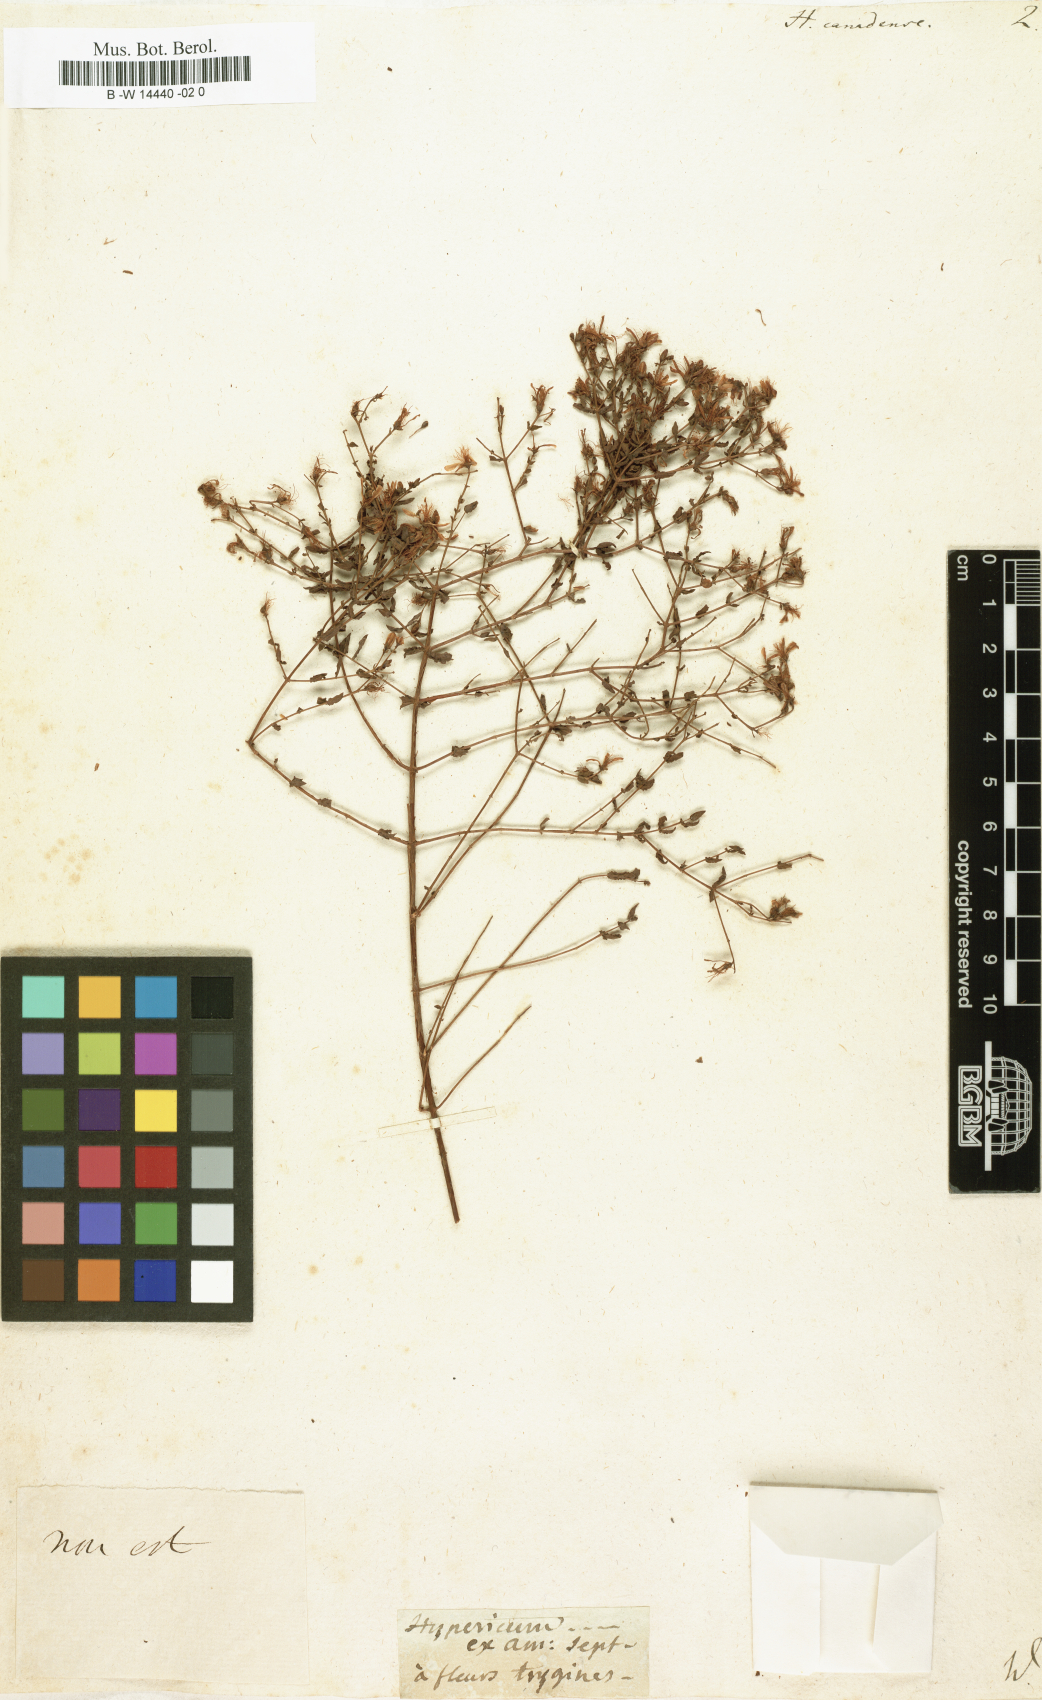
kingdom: Plantae
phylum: Tracheophyta
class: Magnoliopsida
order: Malpighiales
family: Hypericaceae
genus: Hypericum
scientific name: Hypericum canadense
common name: Irish st. john's-wort
